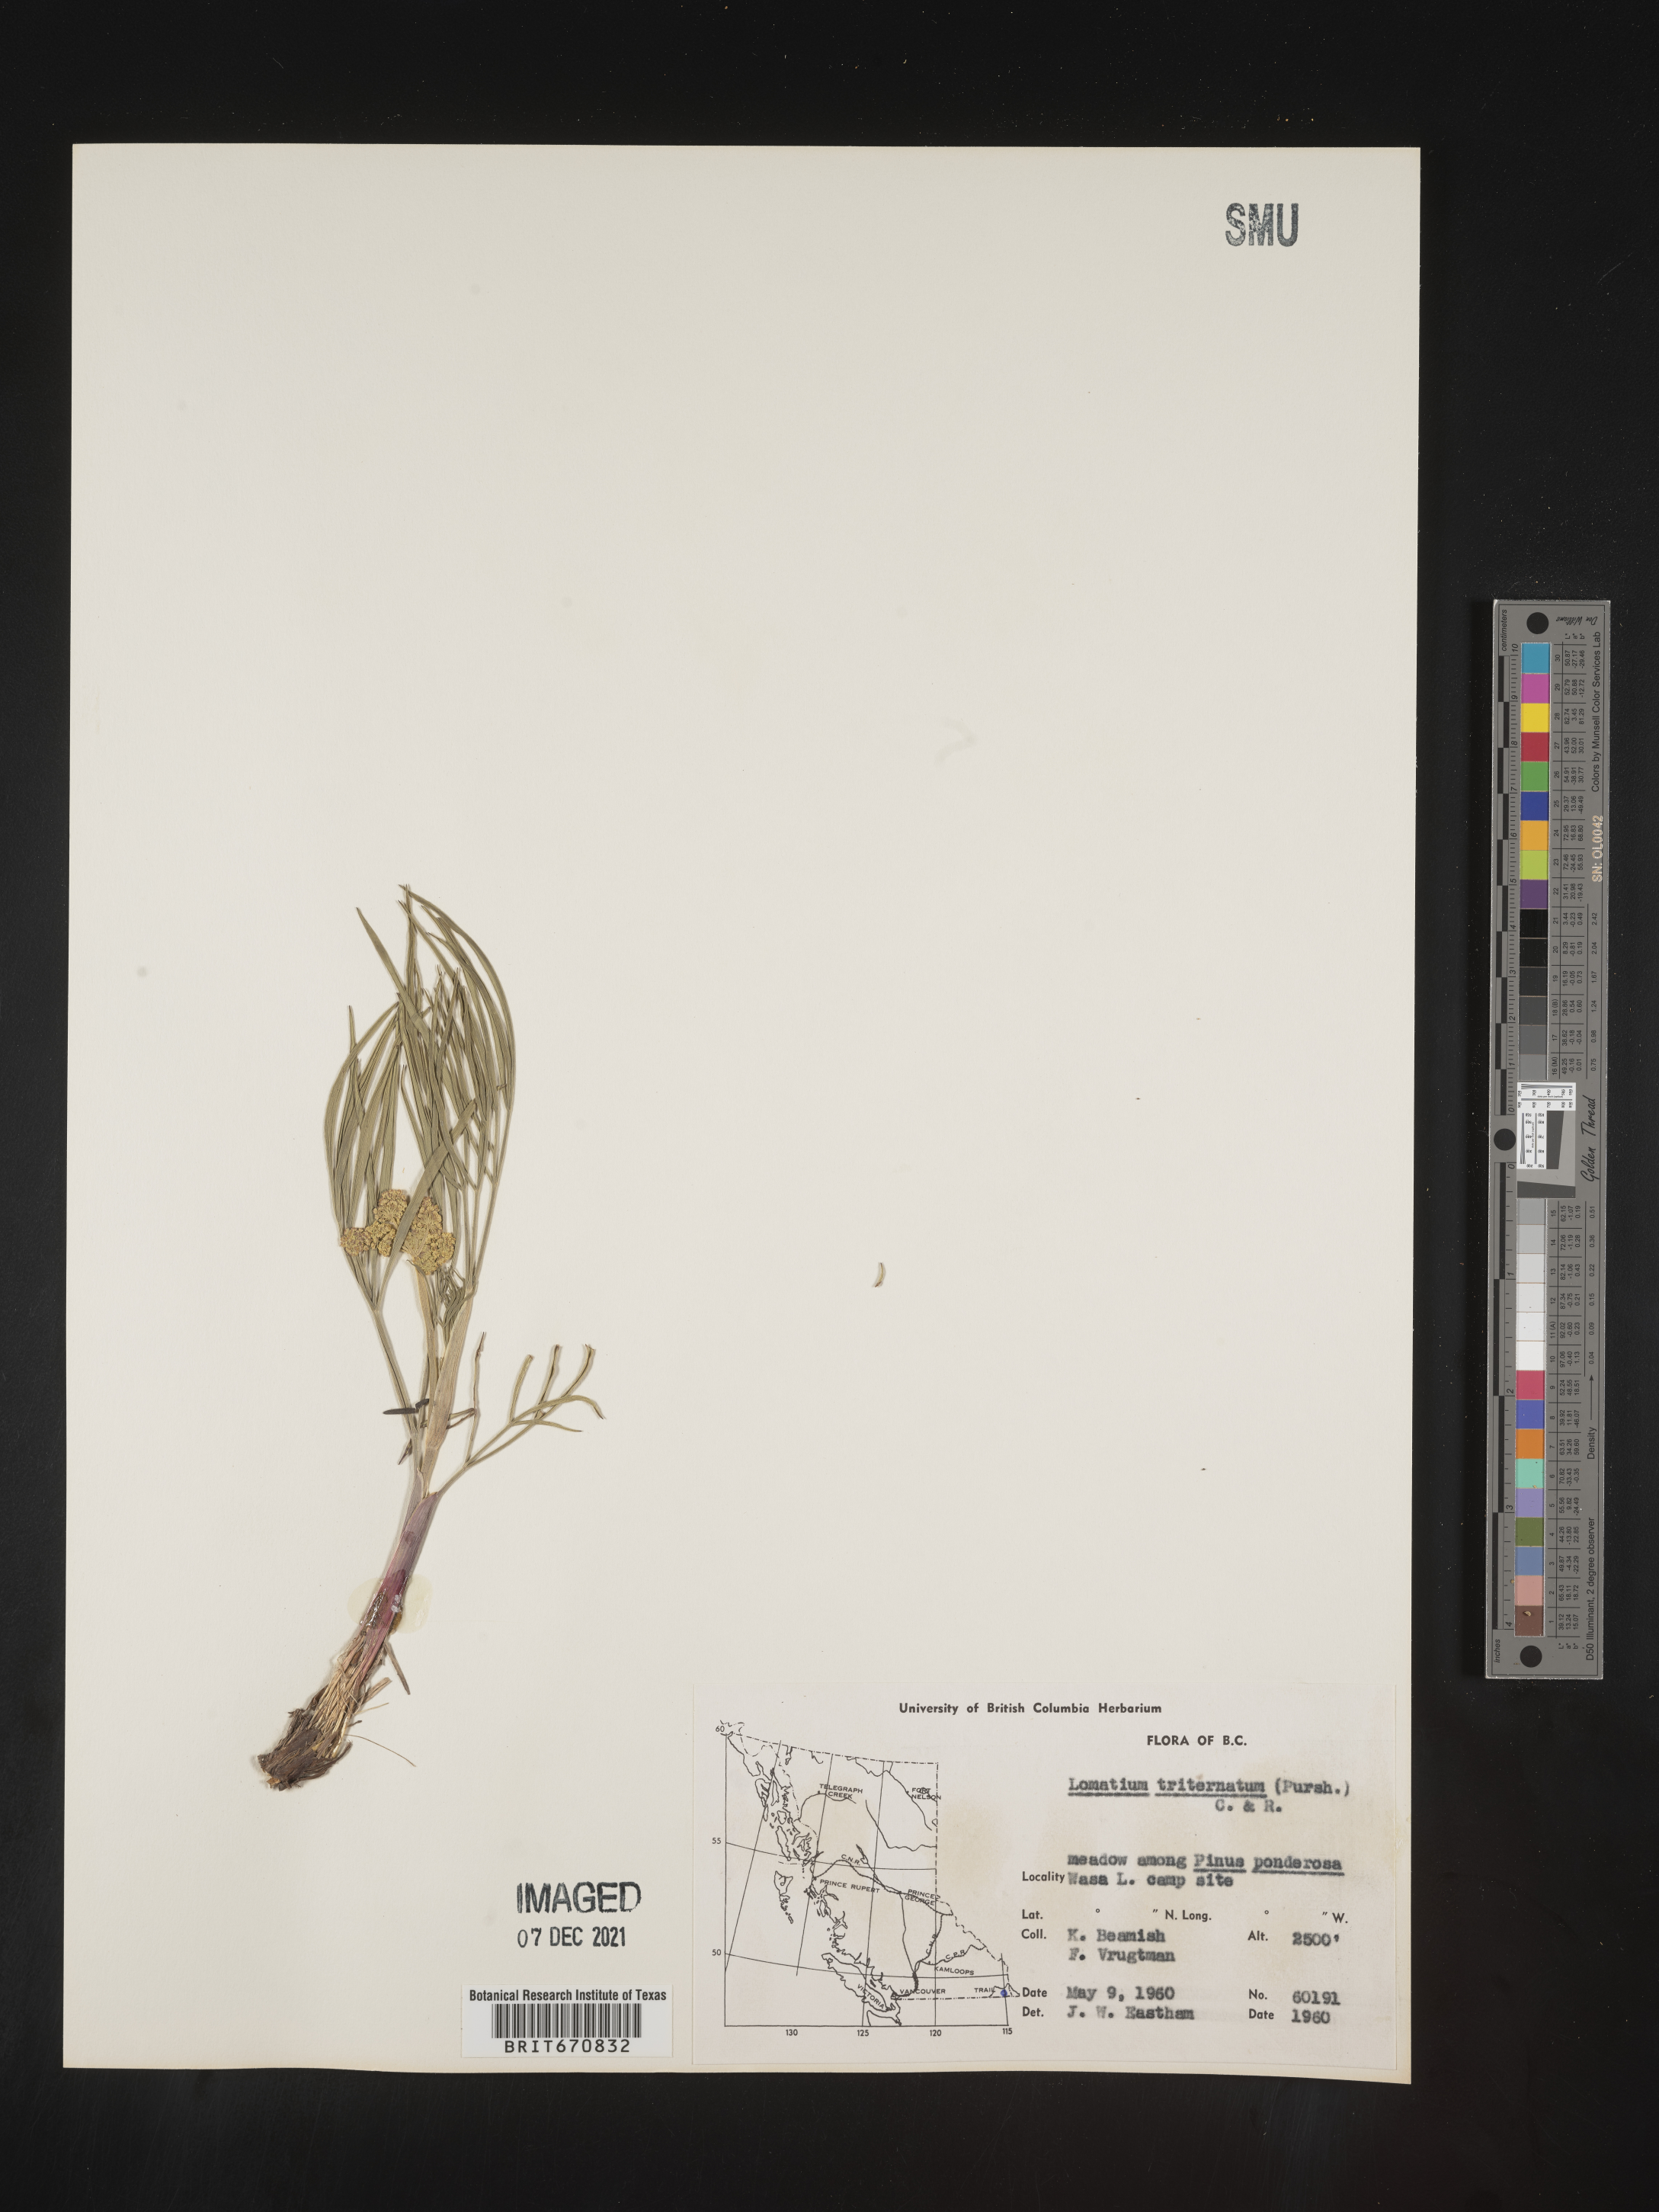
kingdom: Plantae
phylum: Tracheophyta
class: Magnoliopsida
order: Apiales
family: Apiaceae
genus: Lomatium
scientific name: Lomatium triternatum
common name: Ternate lomatium
